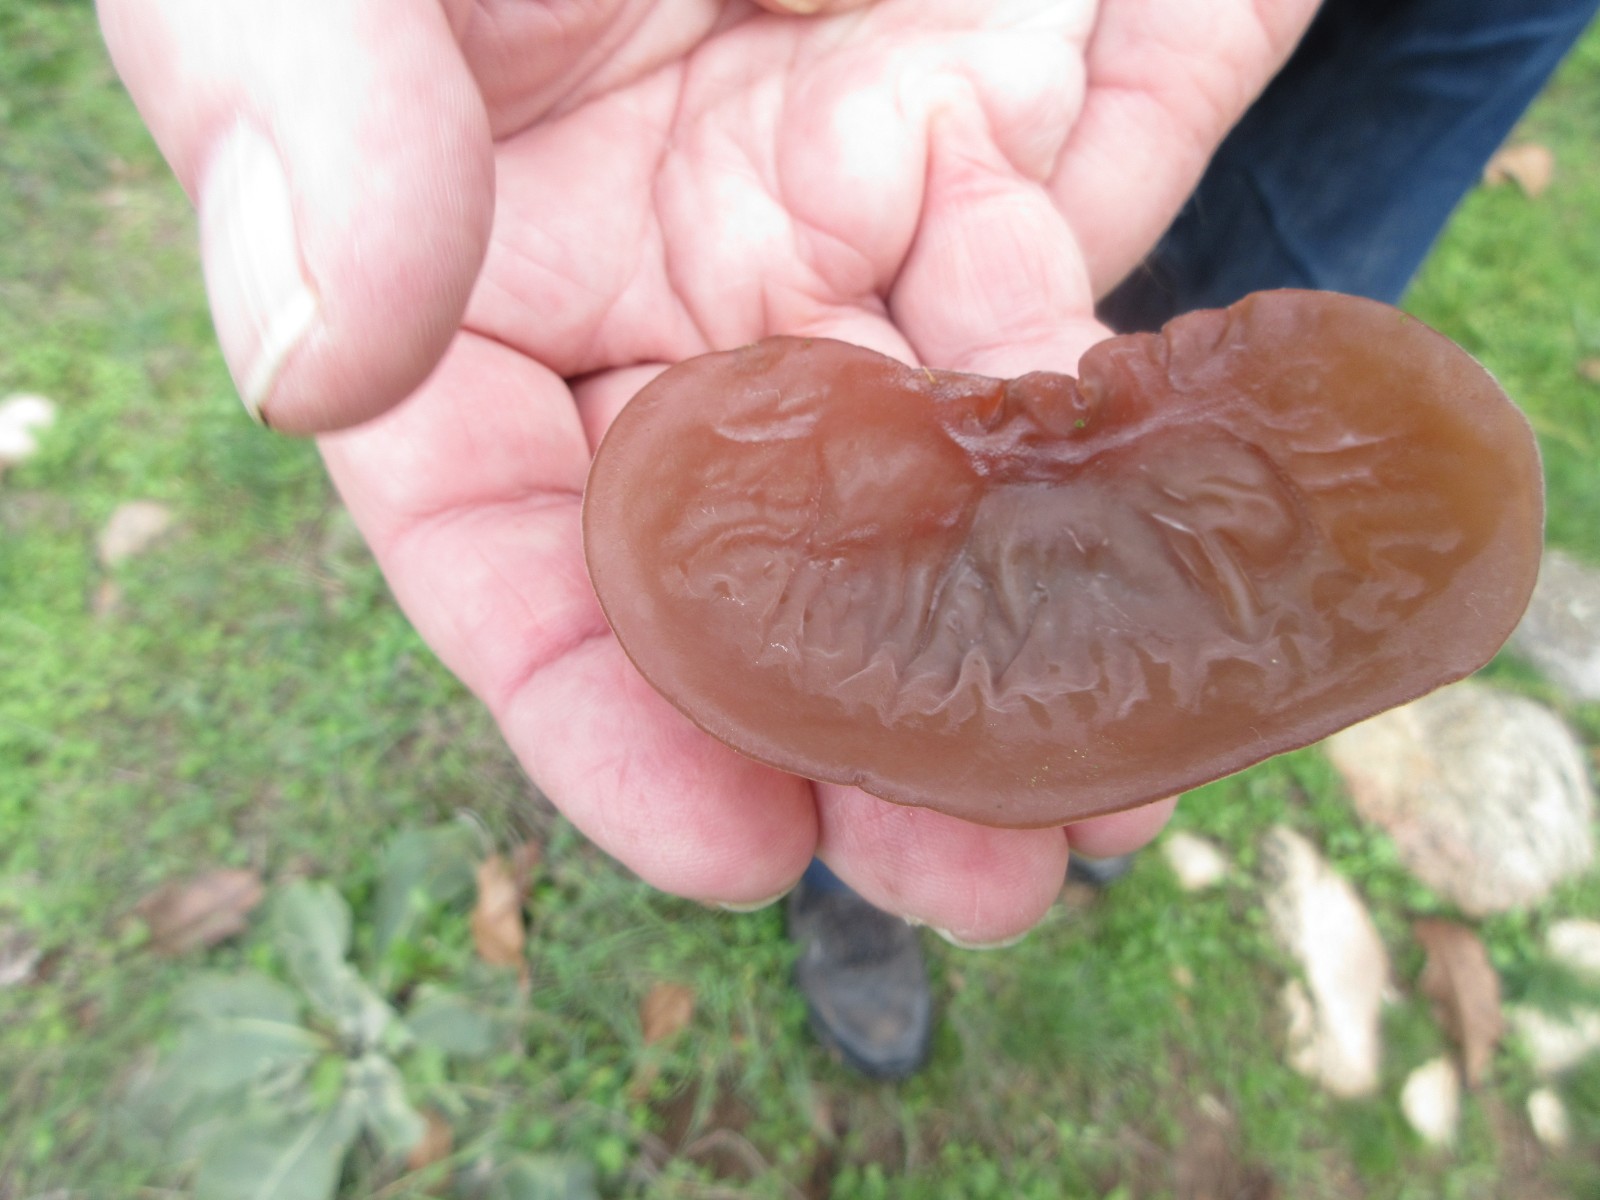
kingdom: Fungi
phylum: Basidiomycota
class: Agaricomycetes
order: Auriculariales
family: Auriculariaceae
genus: Auricularia
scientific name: Auricularia auricula-judae
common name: almindelig judasøre
